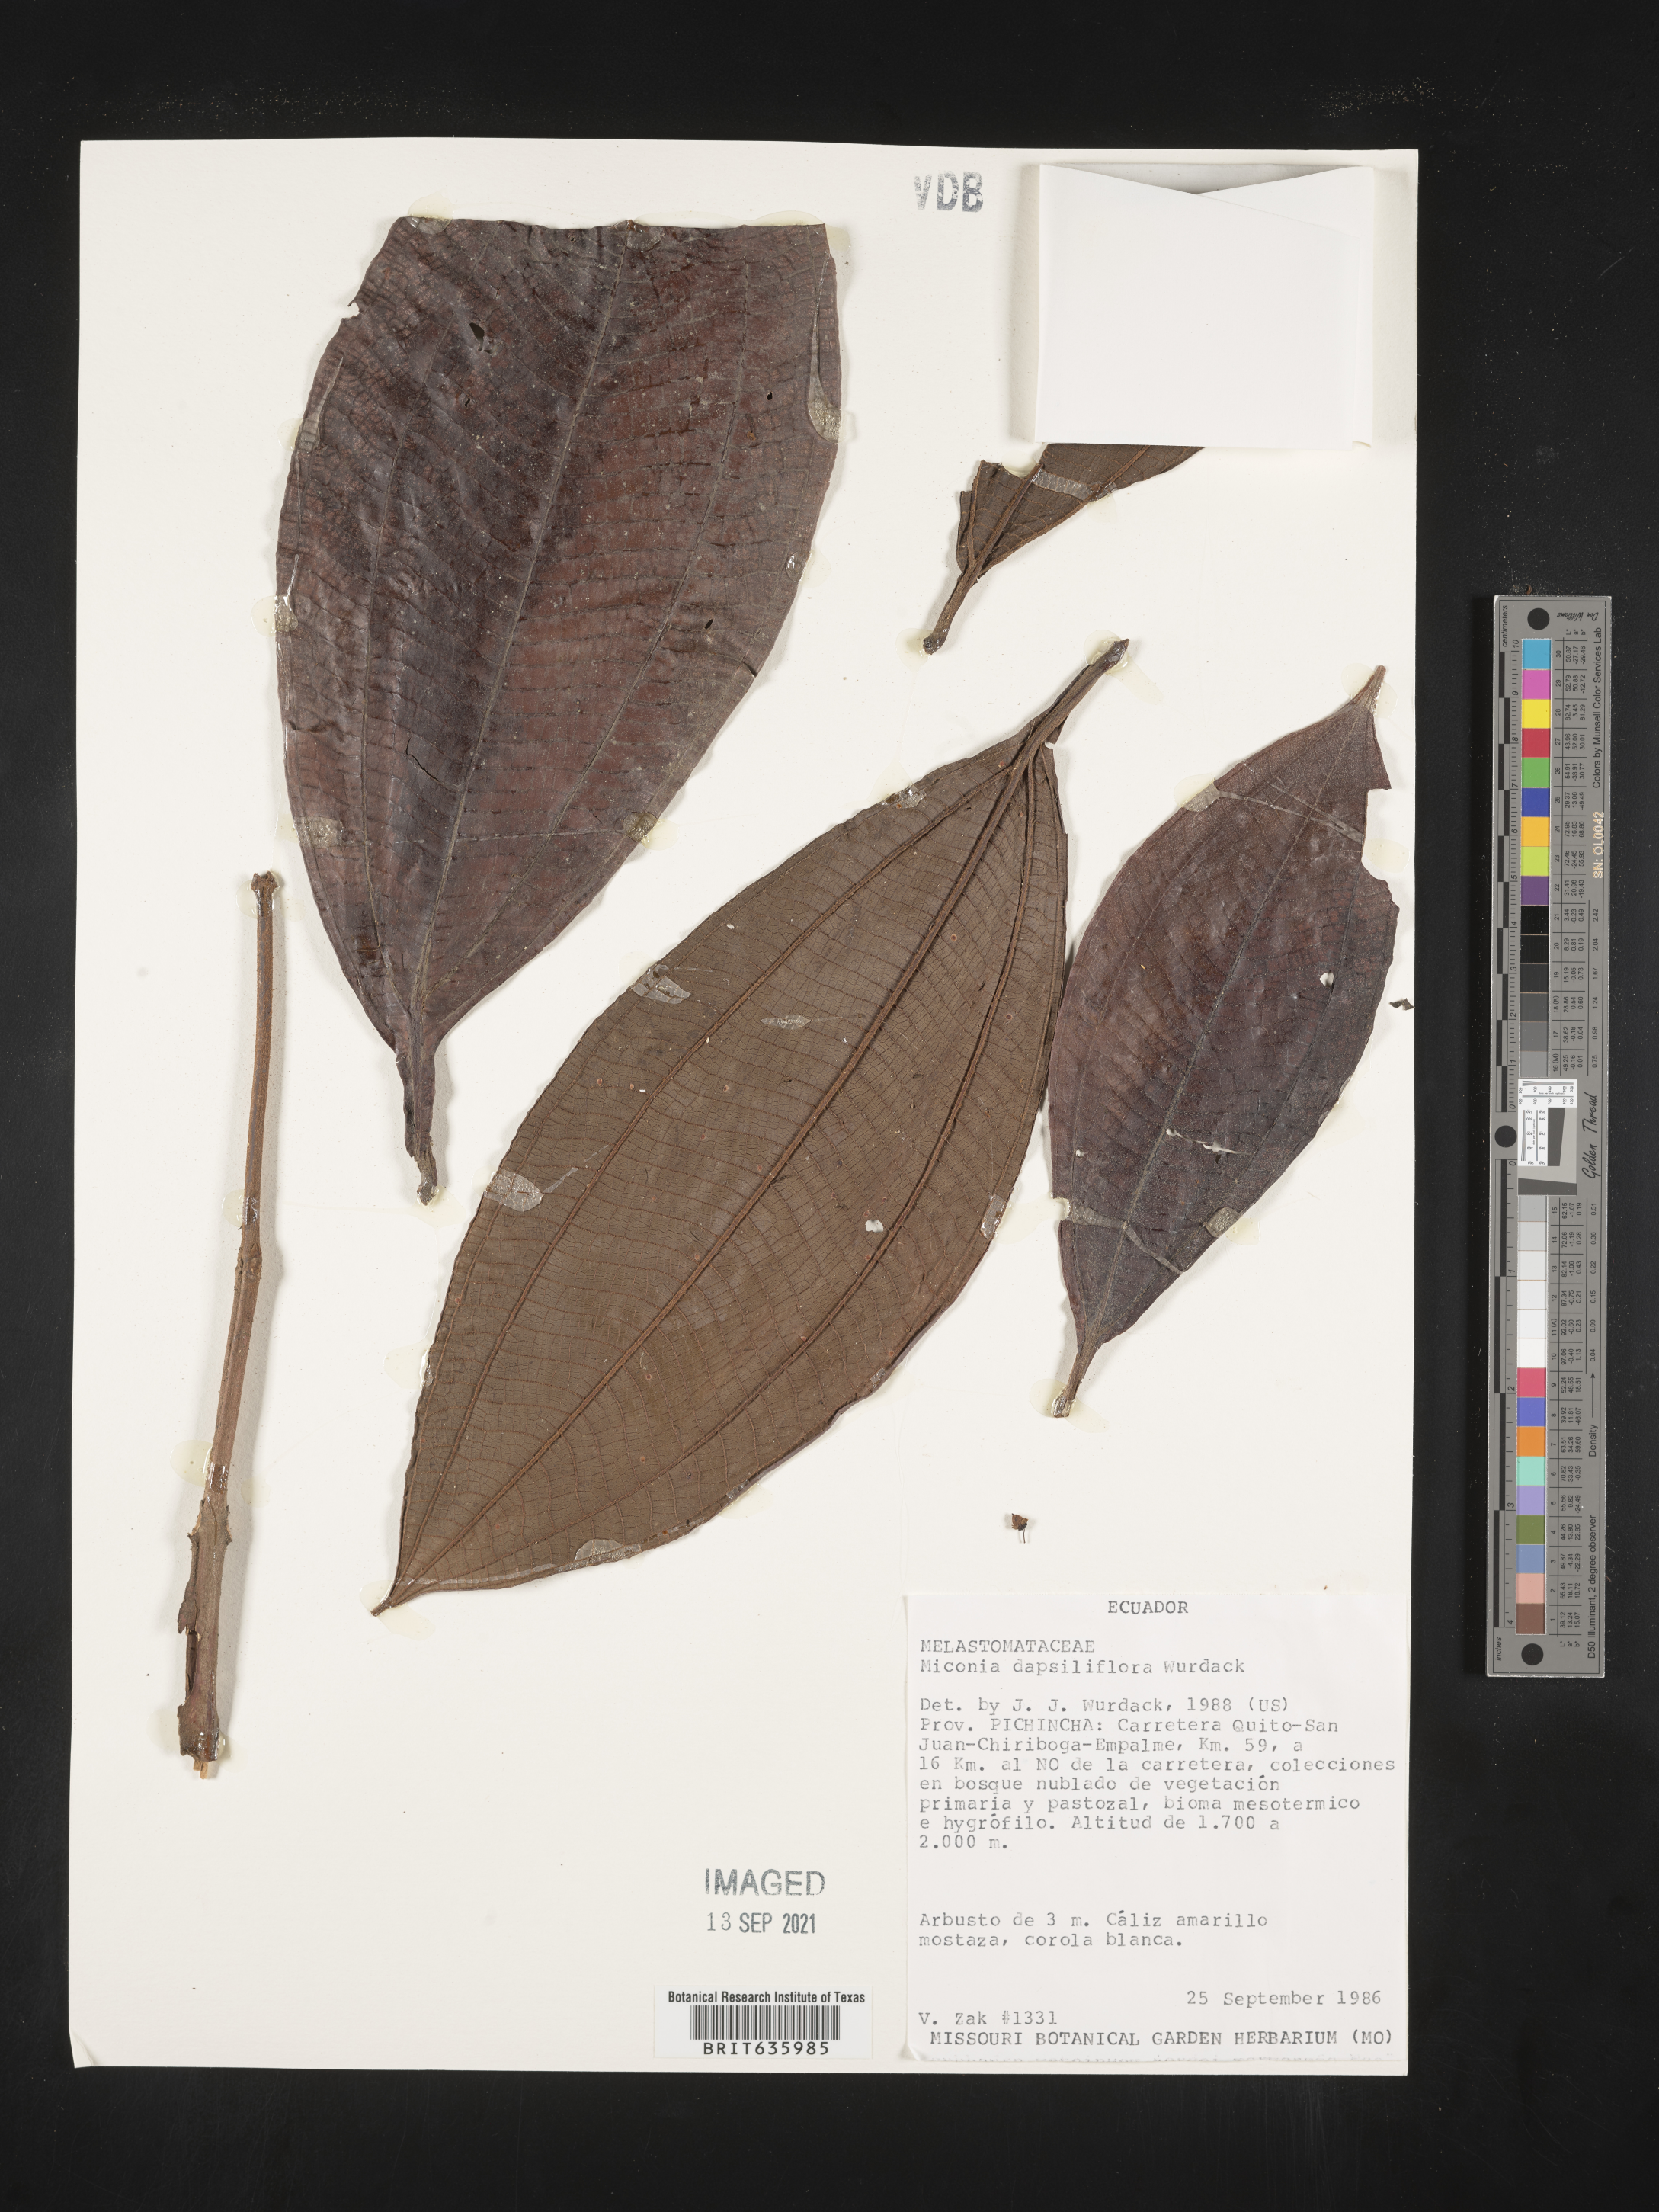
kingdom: Plantae
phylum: Tracheophyta
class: Magnoliopsida
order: Myrtales
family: Melastomataceae
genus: Miconia
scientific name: Miconia
